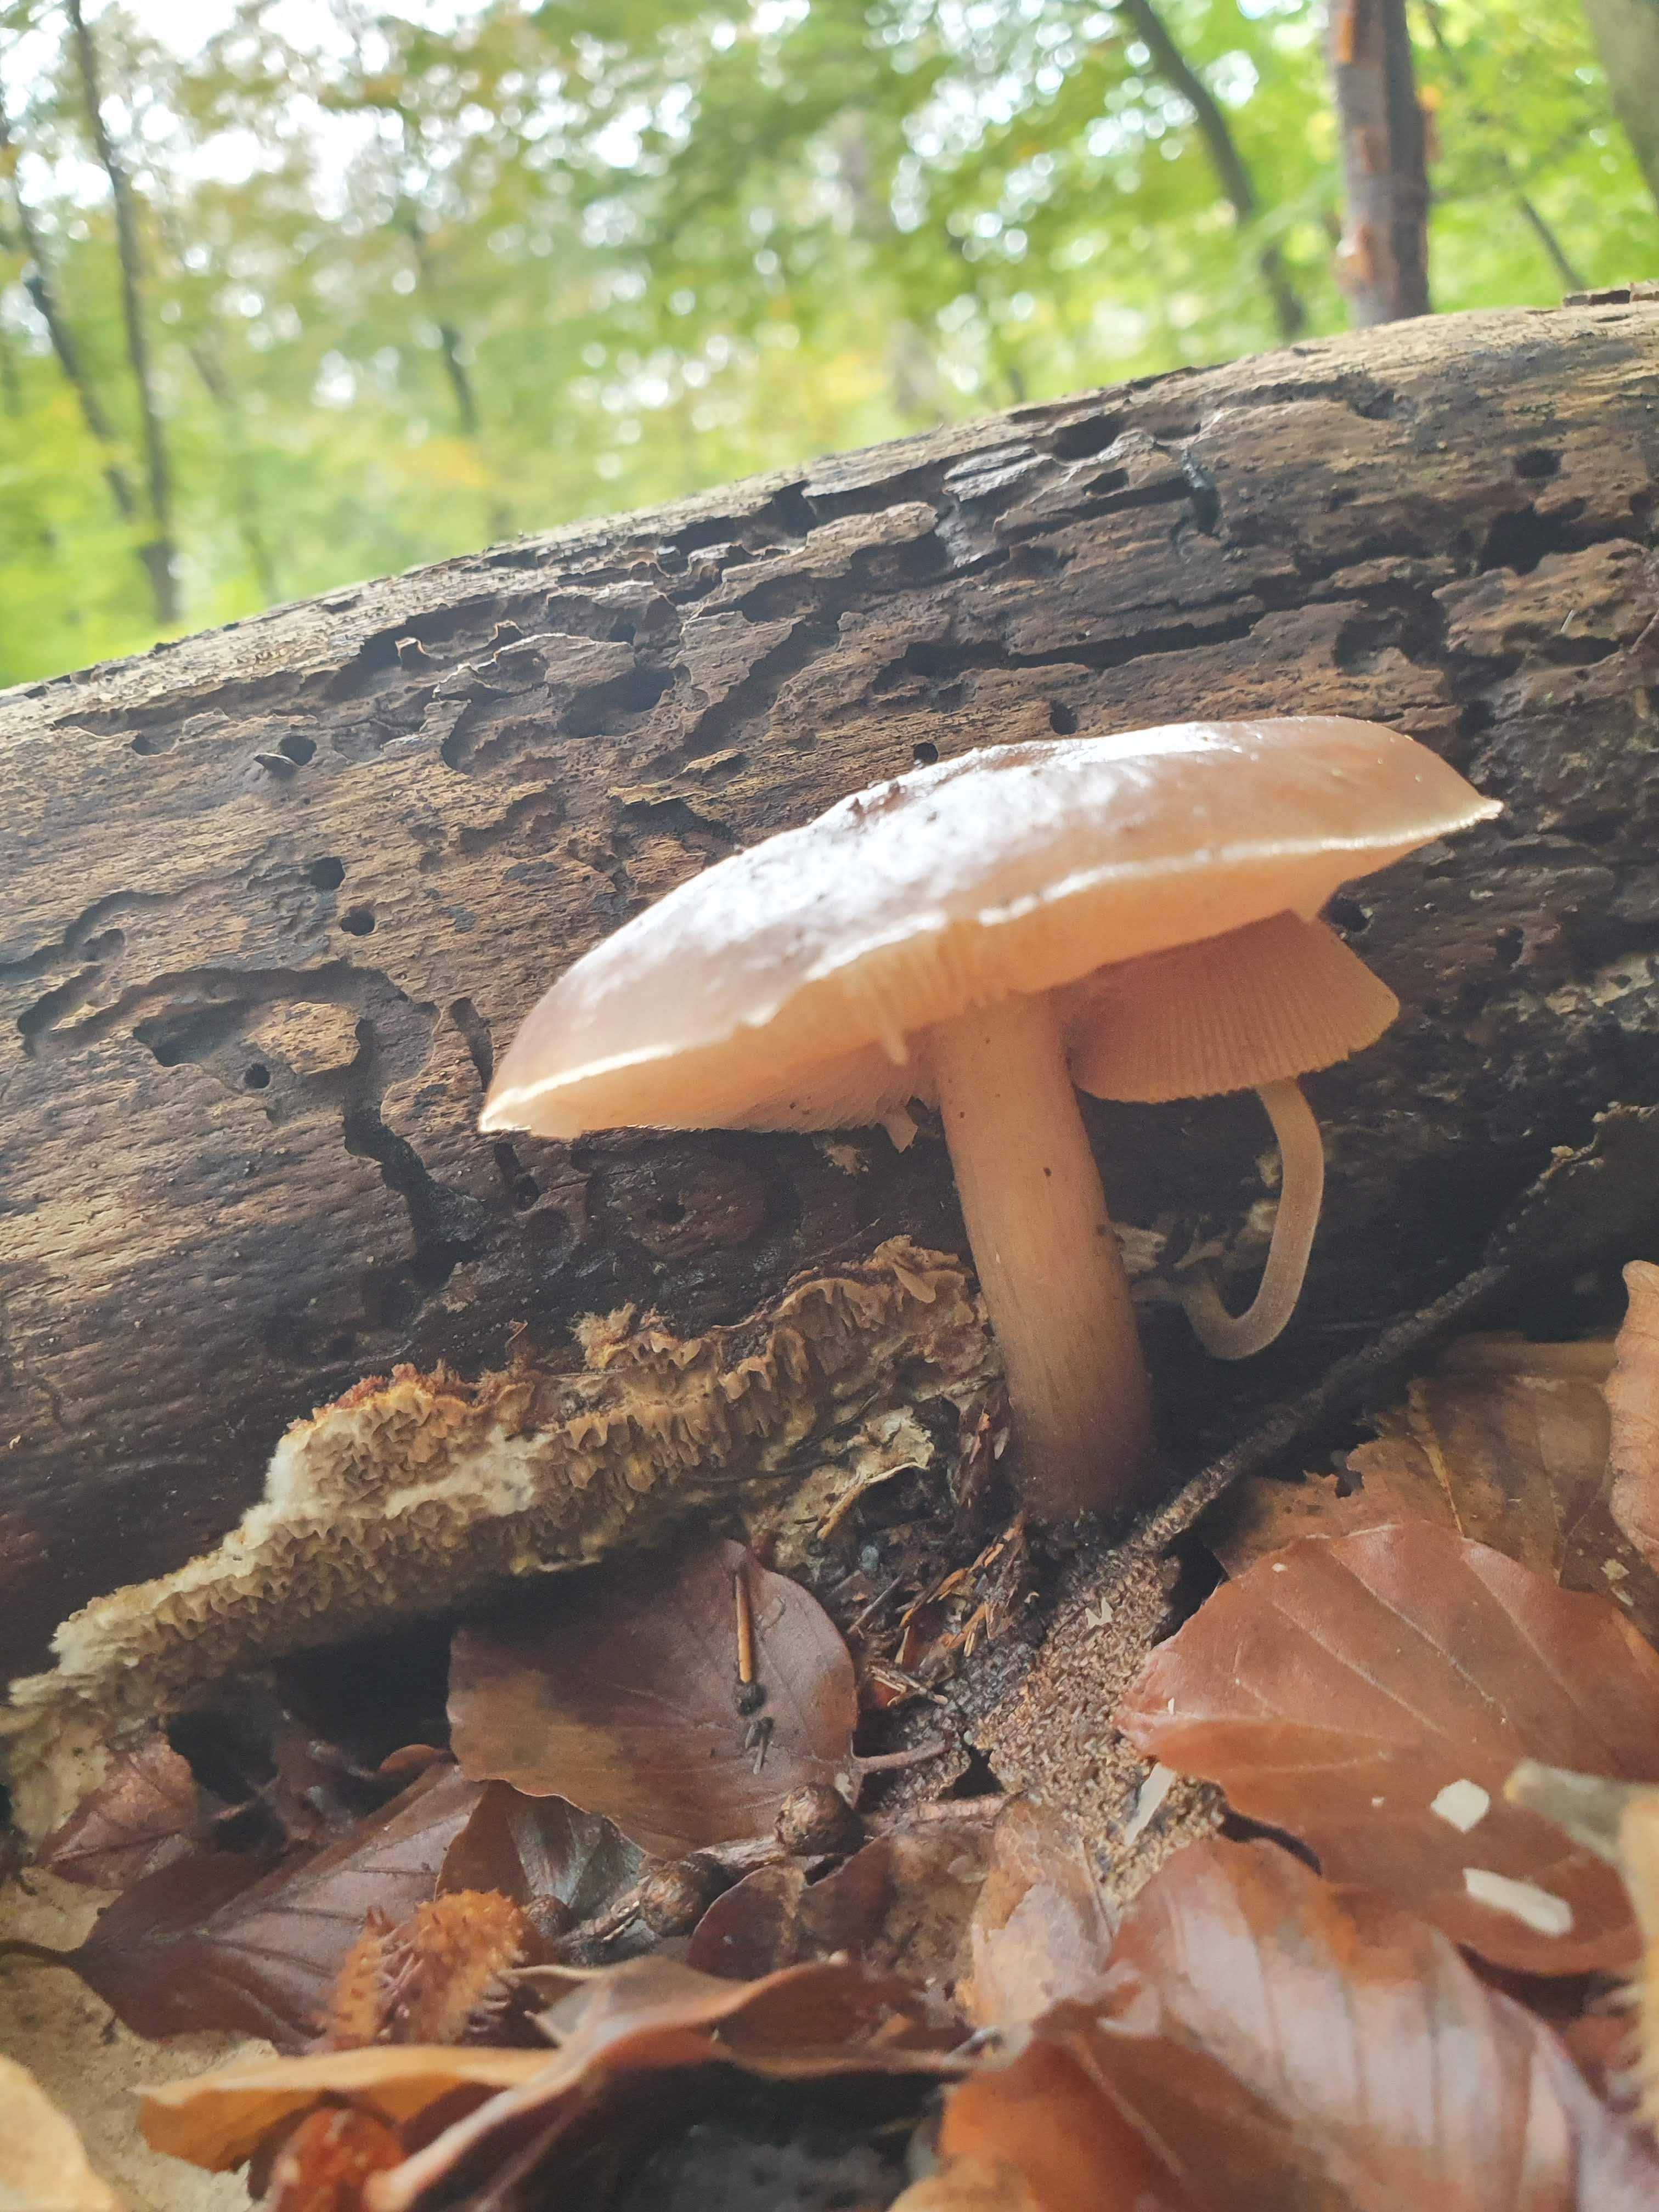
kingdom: Fungi
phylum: Basidiomycota
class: Agaricomycetes
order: Agaricales
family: Pluteaceae
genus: Pluteus
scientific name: Pluteus
